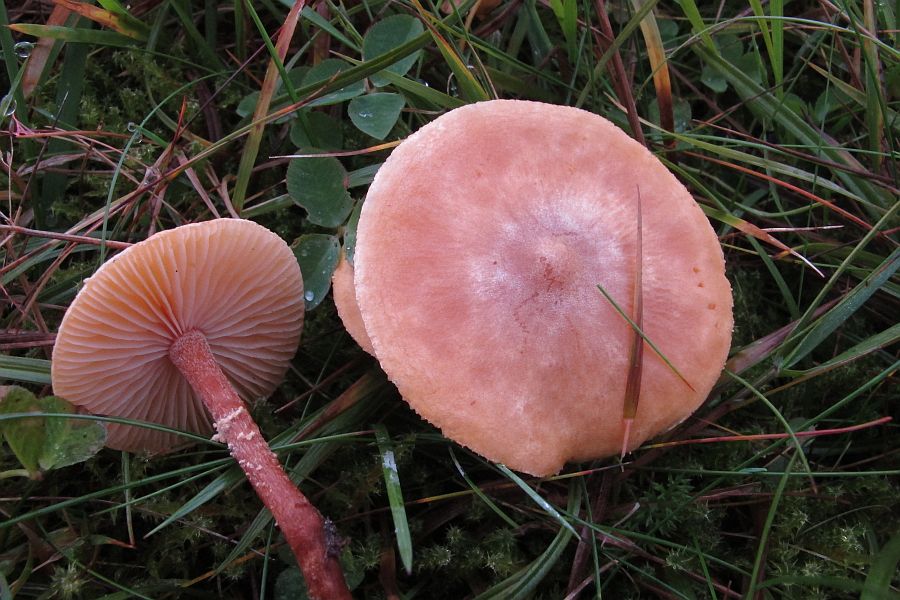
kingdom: Fungi
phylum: Basidiomycota
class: Agaricomycetes
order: Agaricales
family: Tricholomataceae
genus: Cystoderma
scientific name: Cystoderma amianthinum
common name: okkergul grynhat
